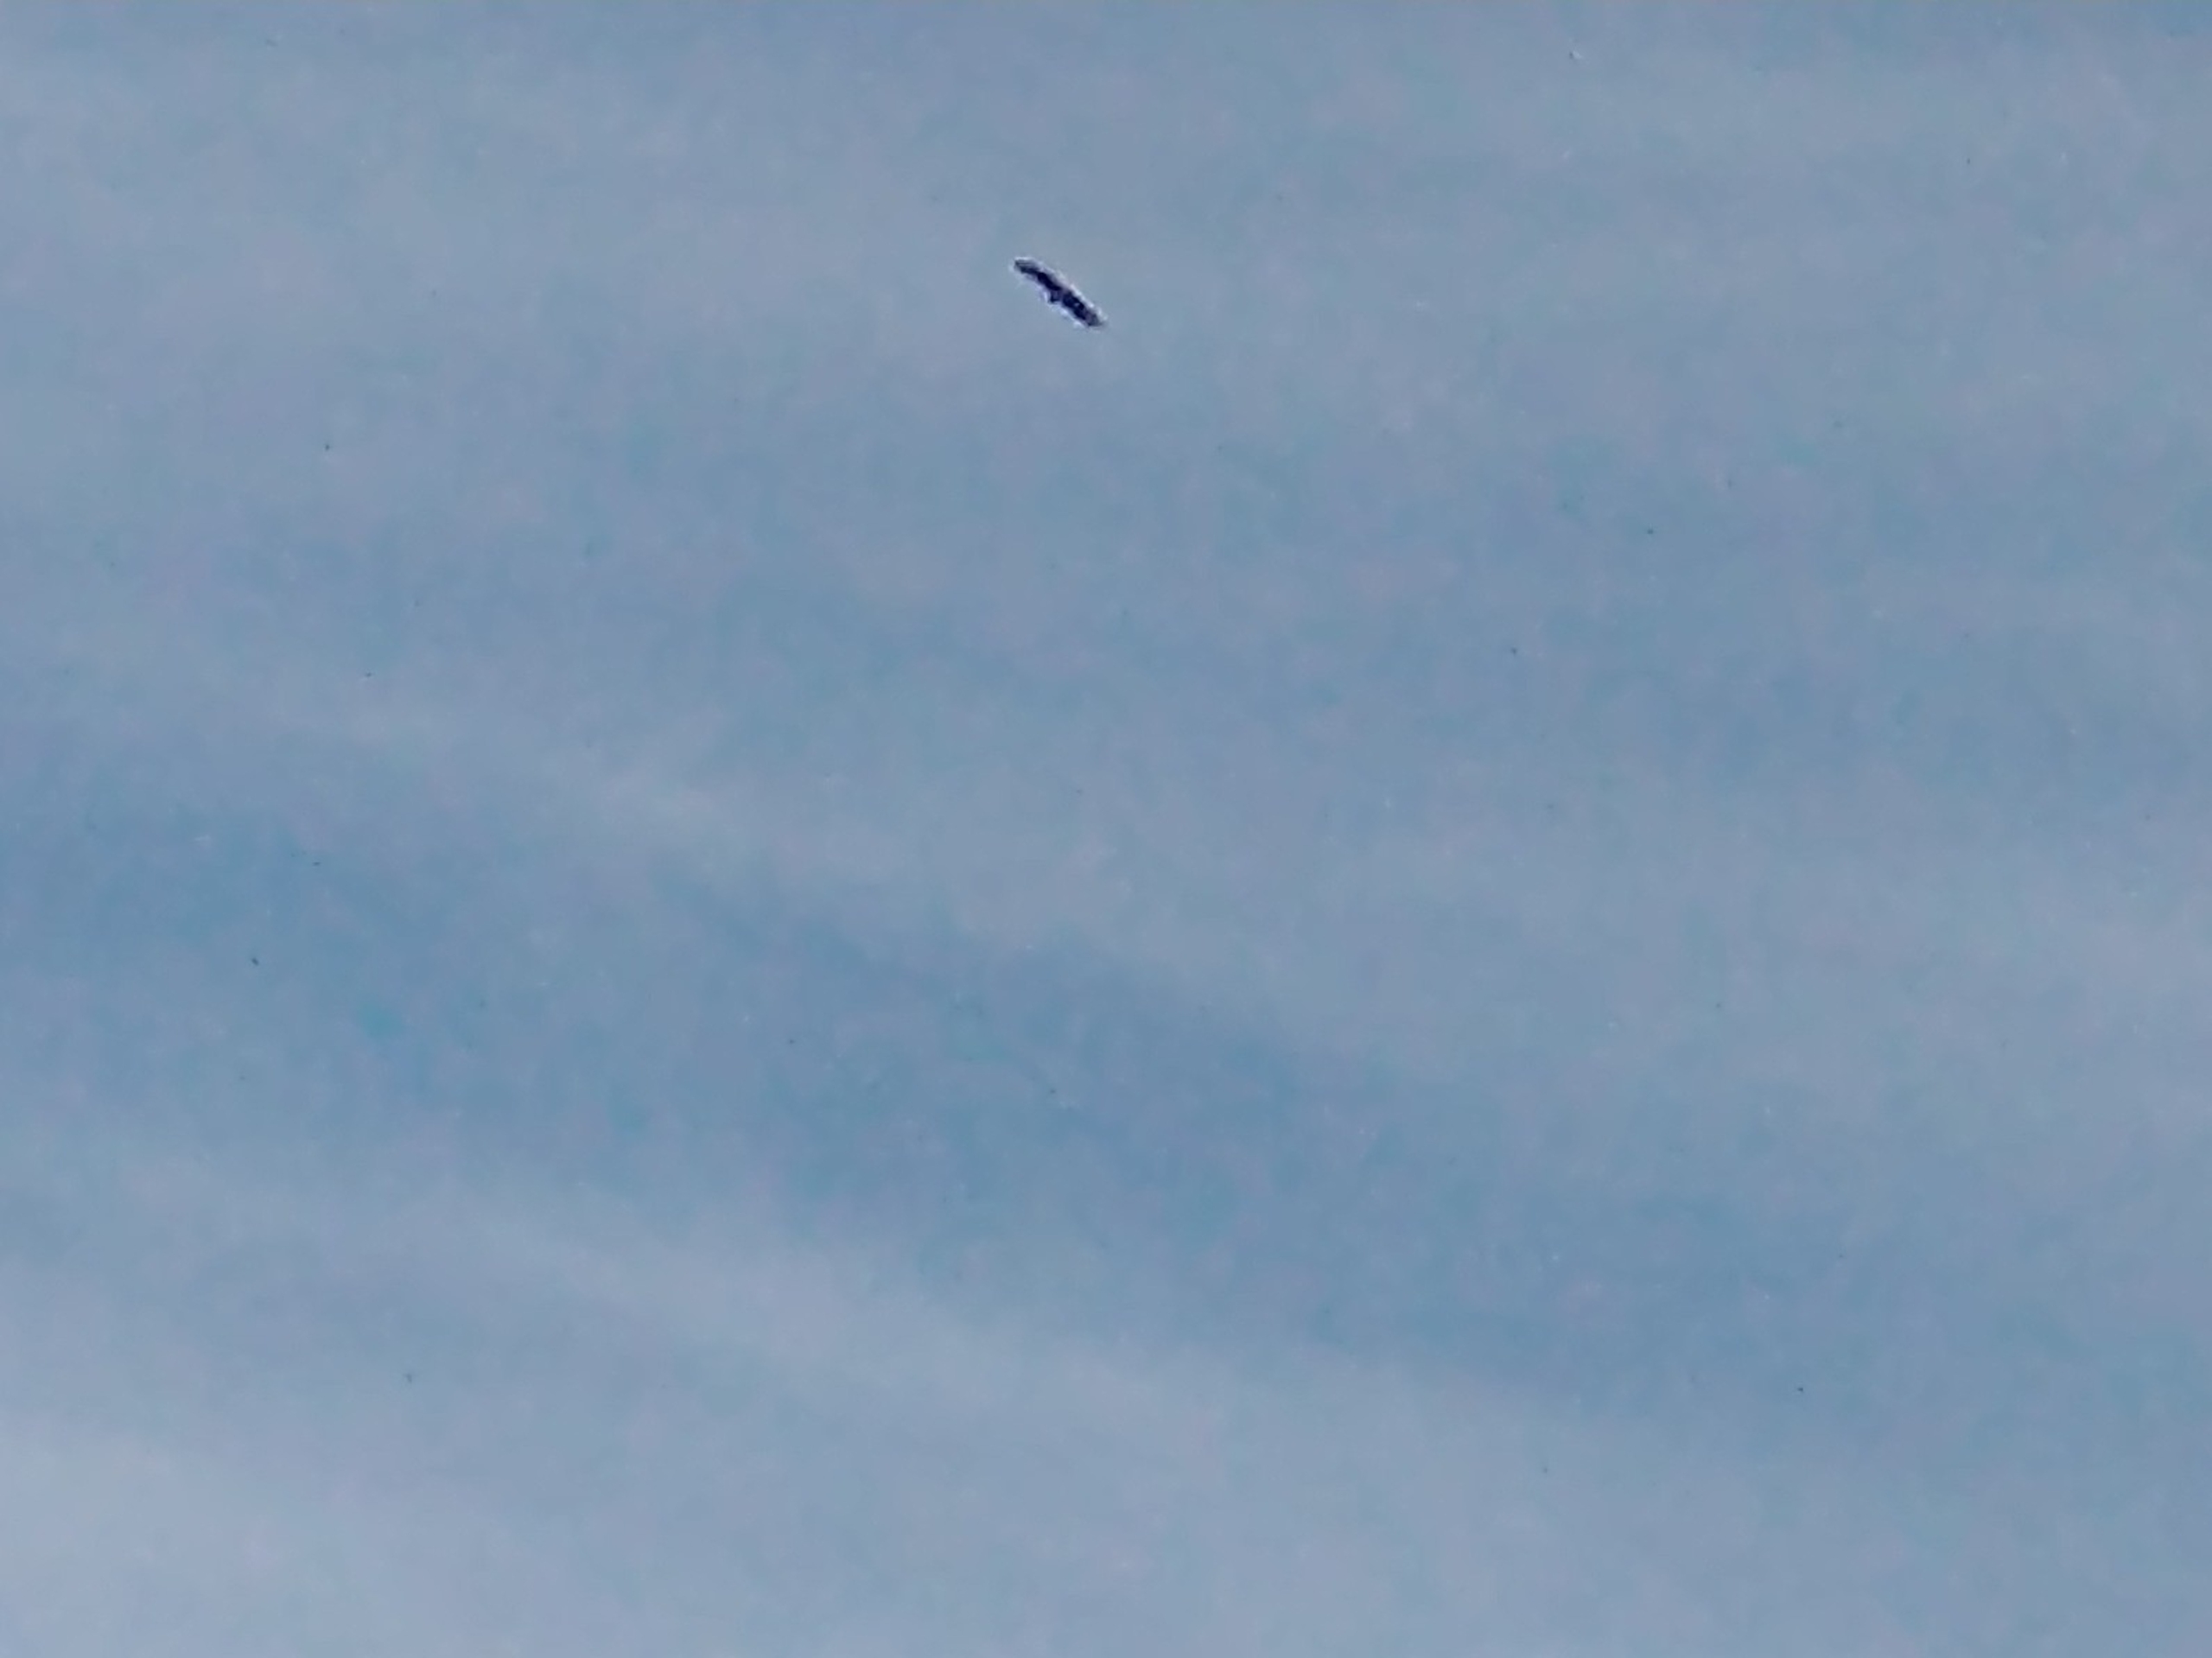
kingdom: Animalia
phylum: Chordata
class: Aves
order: Accipitriformes
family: Accipitridae
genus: Haliaeetus
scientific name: Haliaeetus albicilla
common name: Havørn
